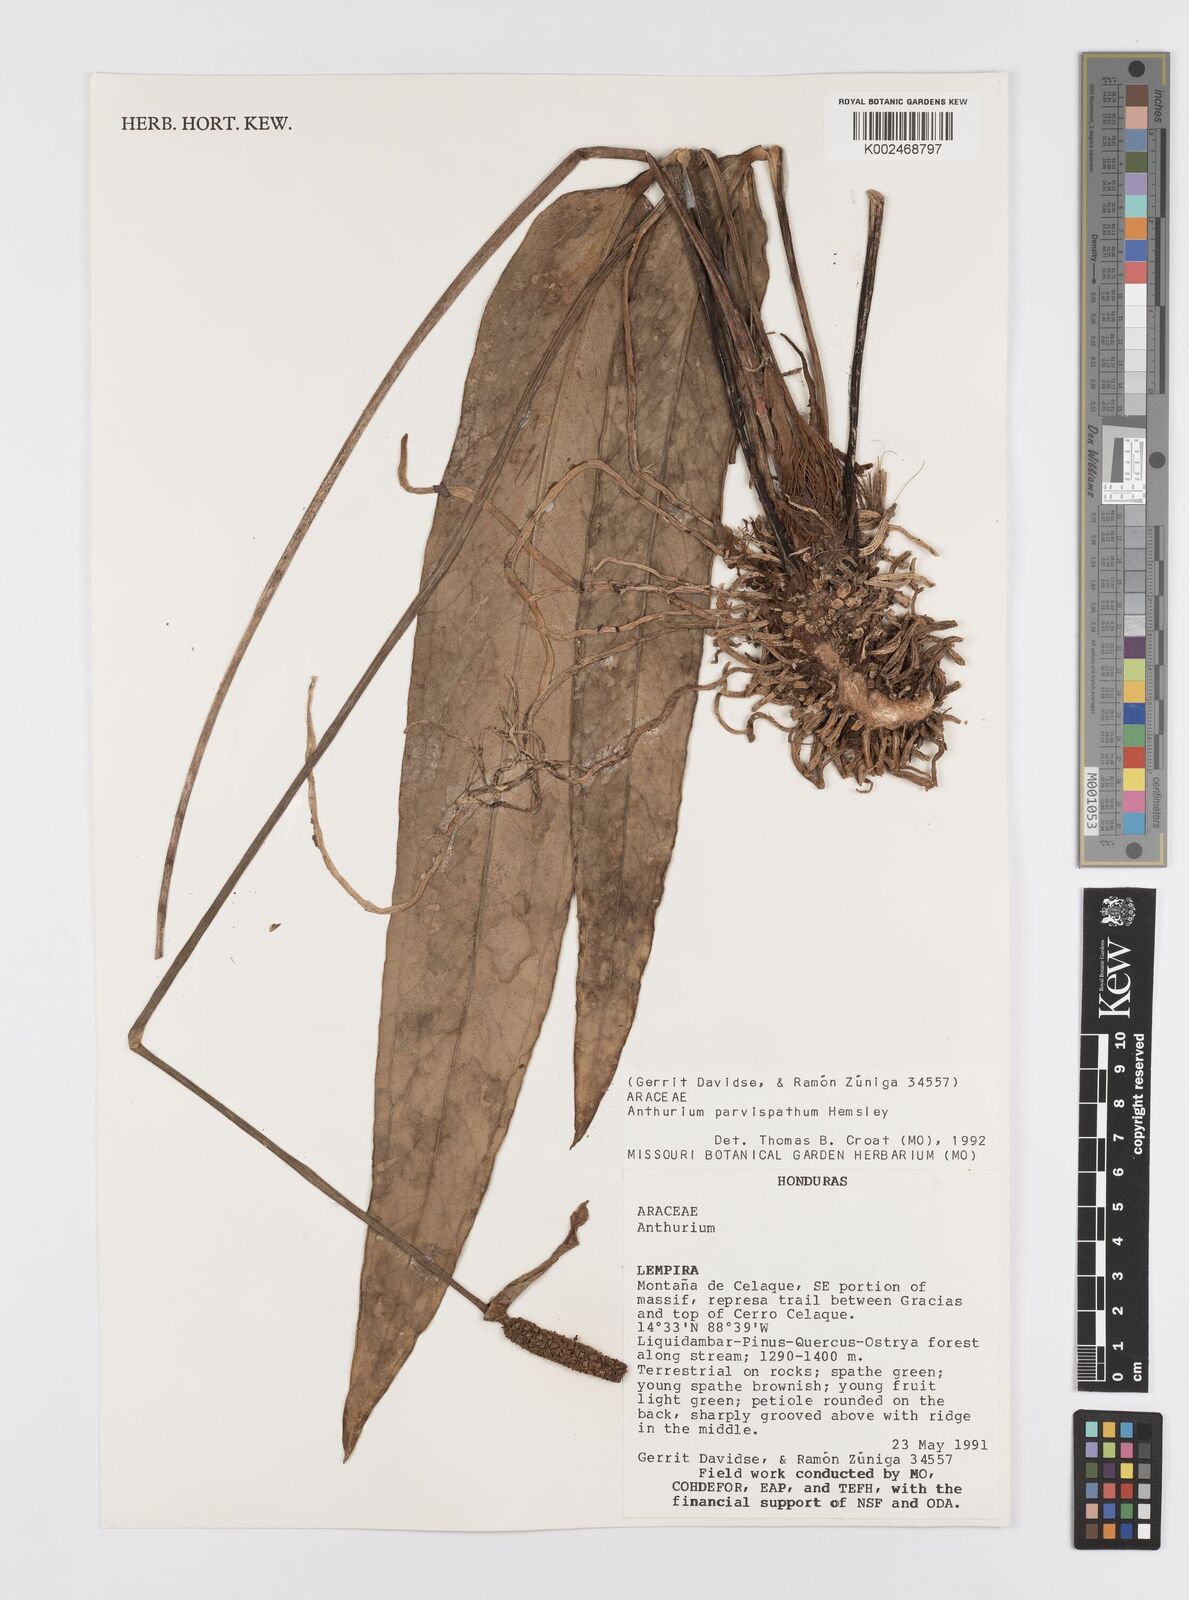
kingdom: Plantae
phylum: Tracheophyta
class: Liliopsida
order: Alismatales
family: Araceae
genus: Anthurium
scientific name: Anthurium parvispathum
